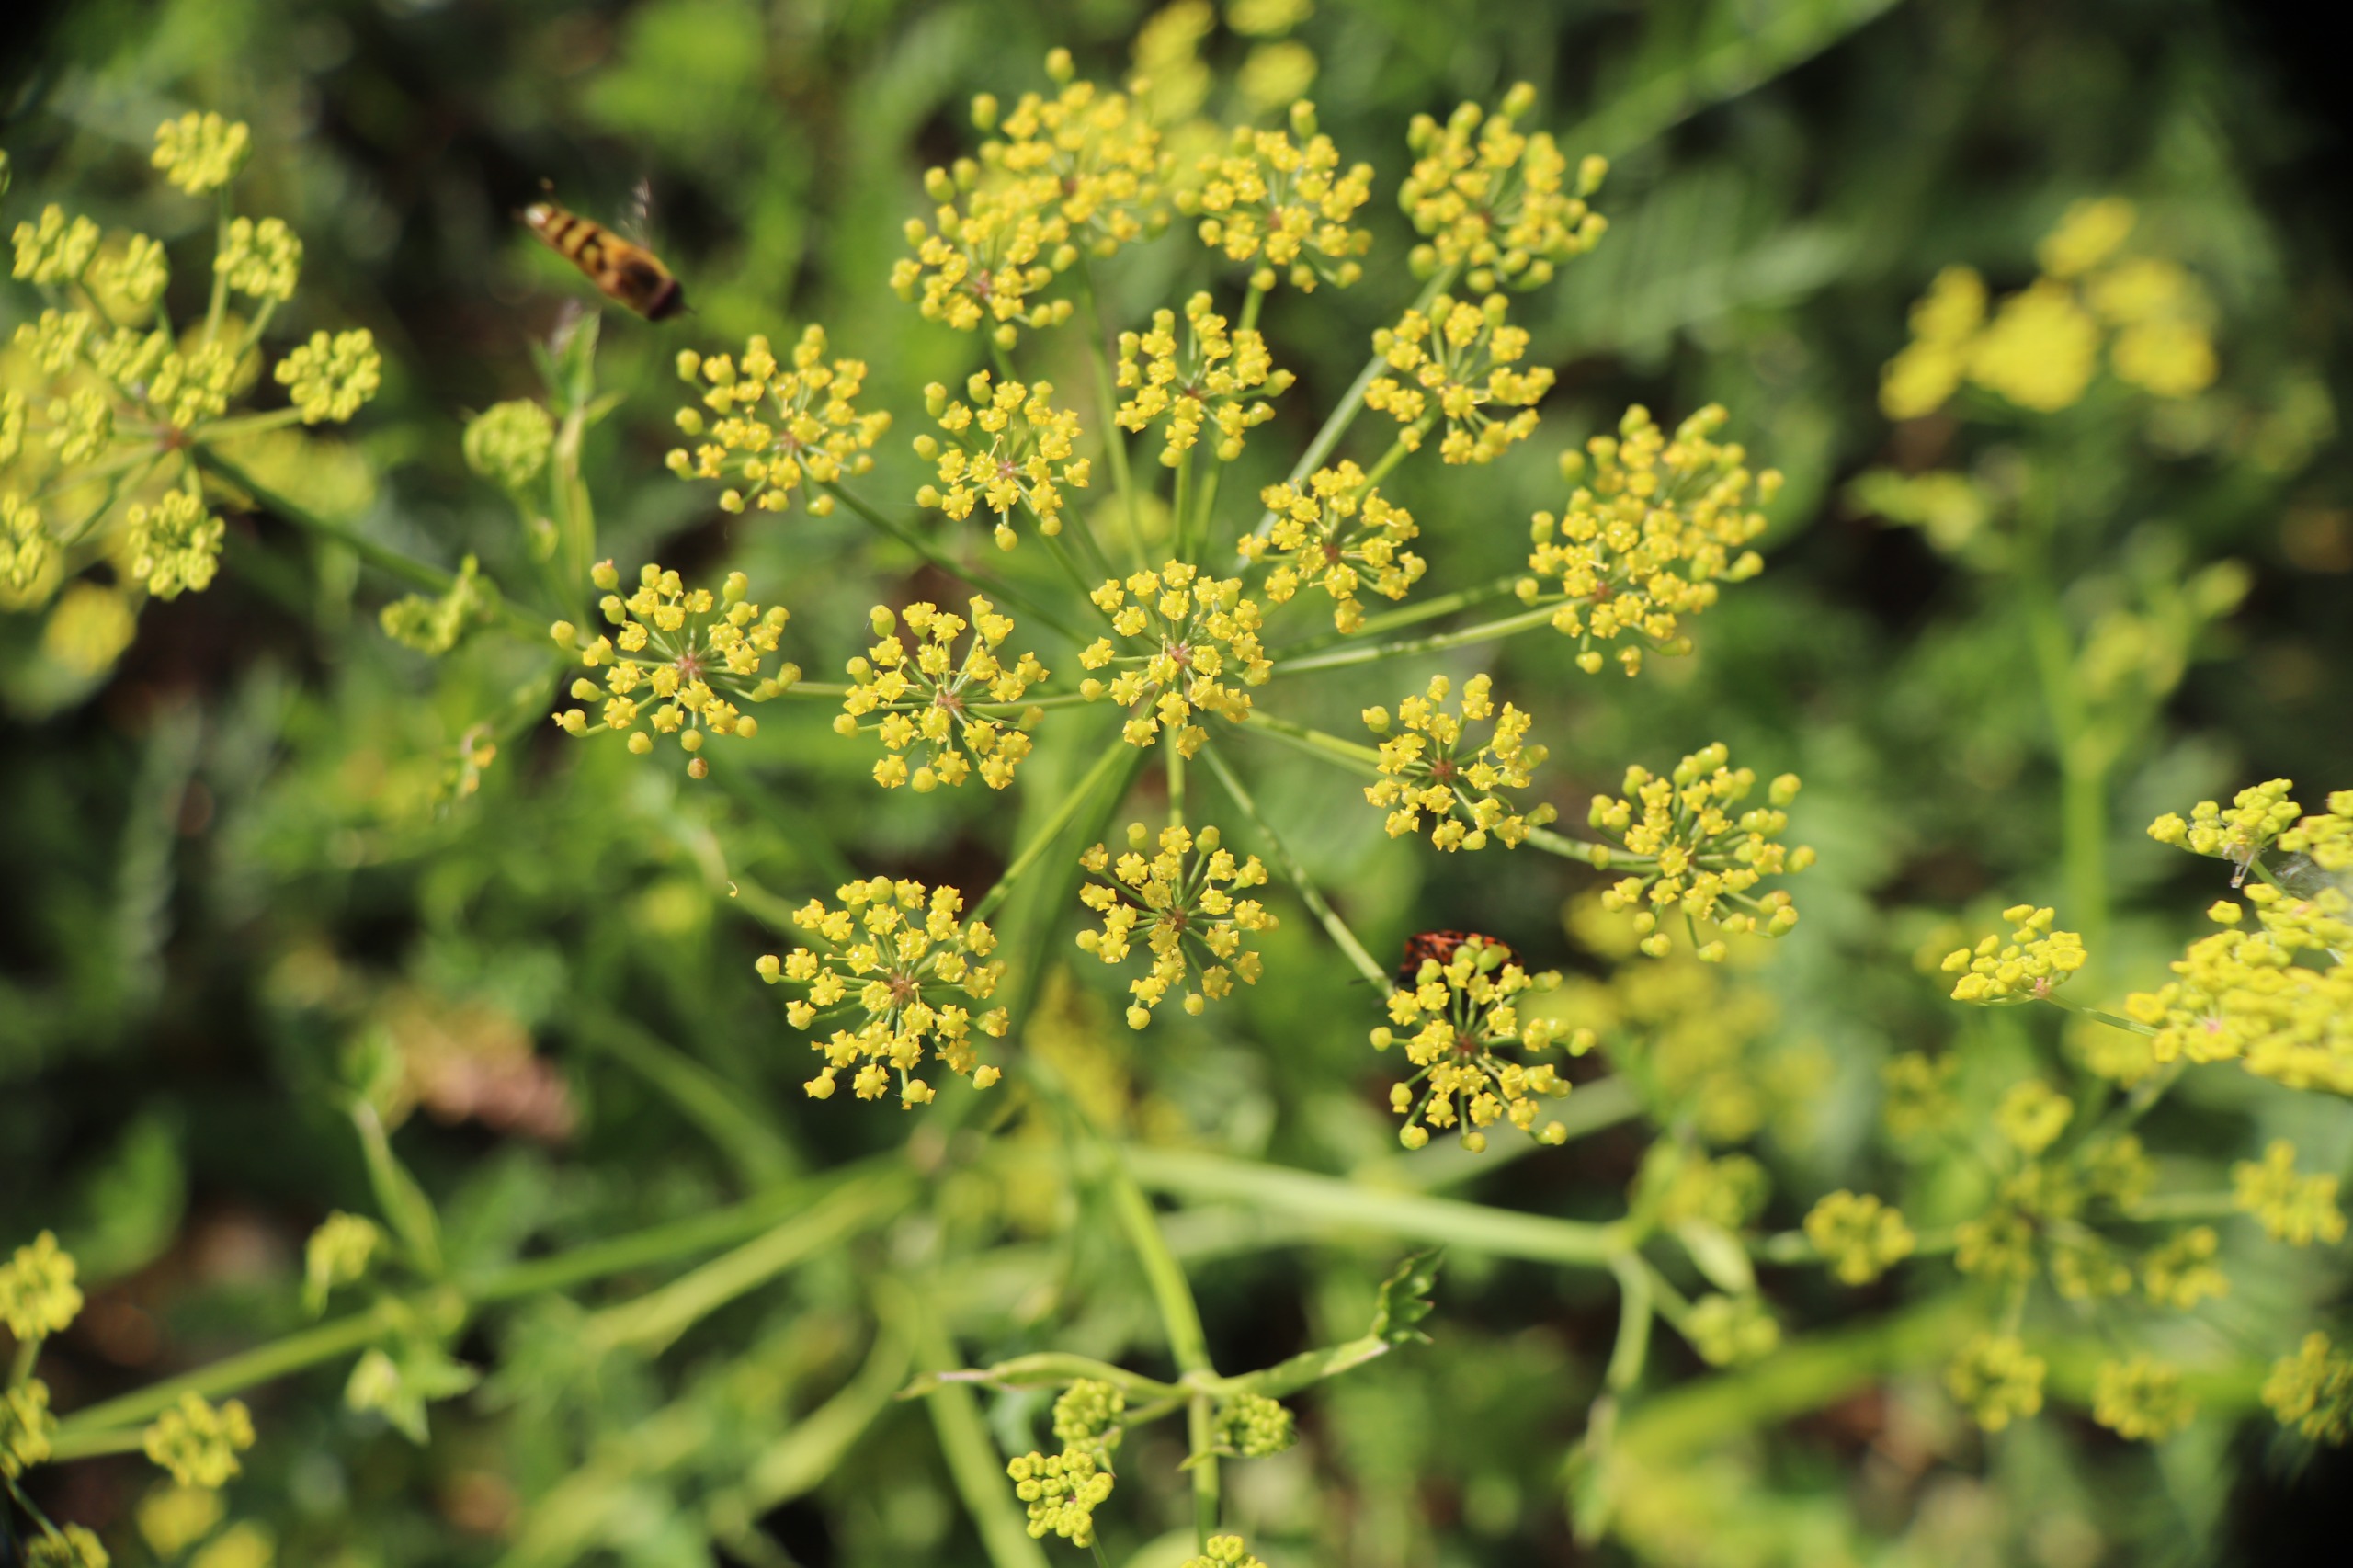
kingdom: Plantae
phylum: Tracheophyta
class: Magnoliopsida
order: Apiales
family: Apiaceae
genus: Pastinaca
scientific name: Pastinaca sativa
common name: Pastinak
